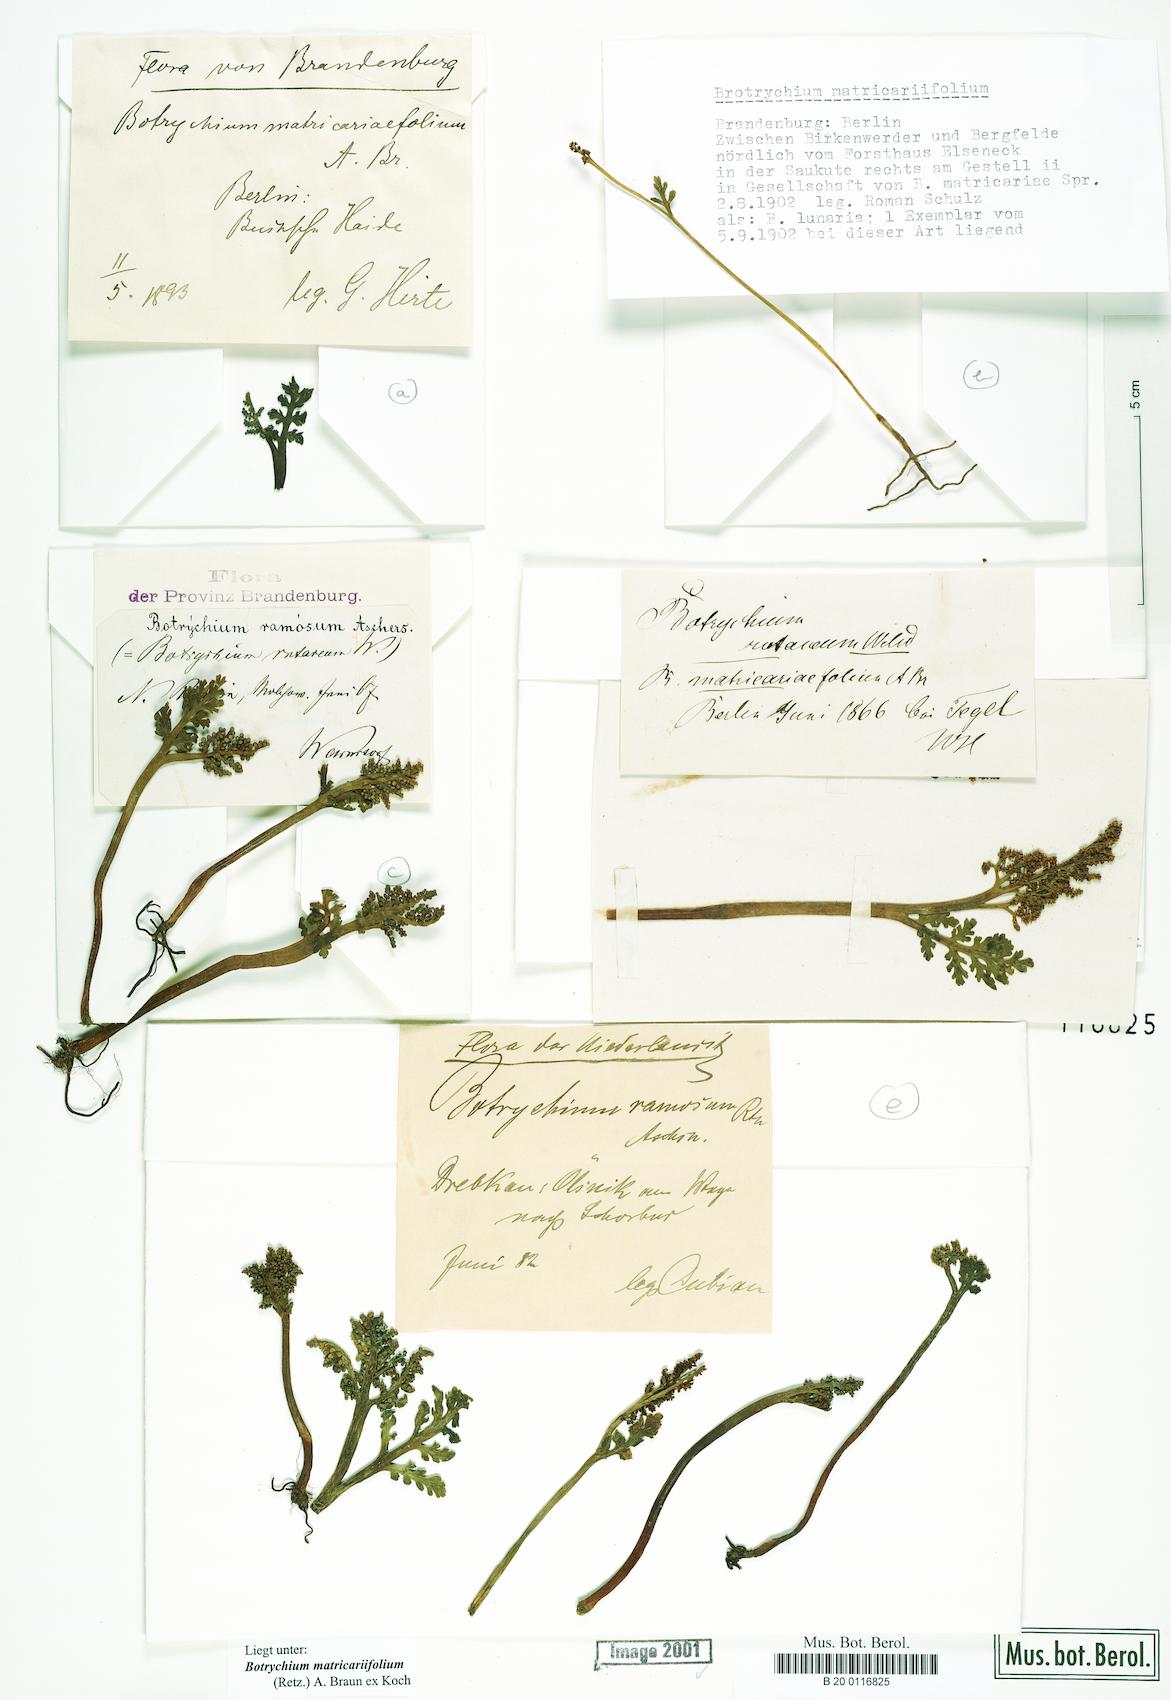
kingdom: Plantae
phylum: Tracheophyta
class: Polypodiopsida
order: Ophioglossales
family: Ophioglossaceae
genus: Botrychium
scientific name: Botrychium matricariifolium
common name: Branched moonwort
